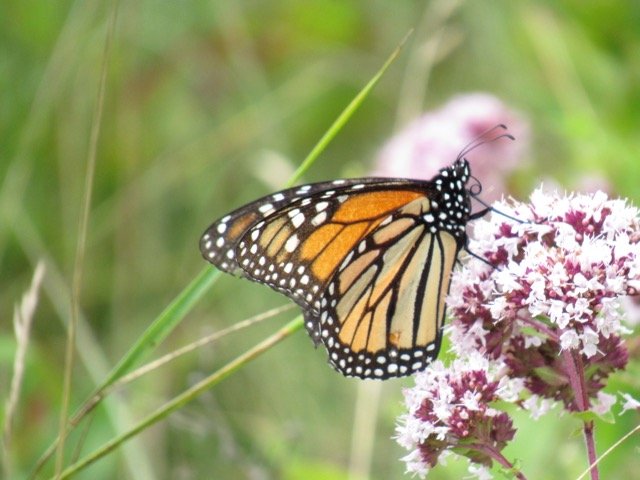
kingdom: Animalia
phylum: Arthropoda
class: Insecta
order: Lepidoptera
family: Nymphalidae
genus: Danaus
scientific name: Danaus plexippus
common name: Monarch
